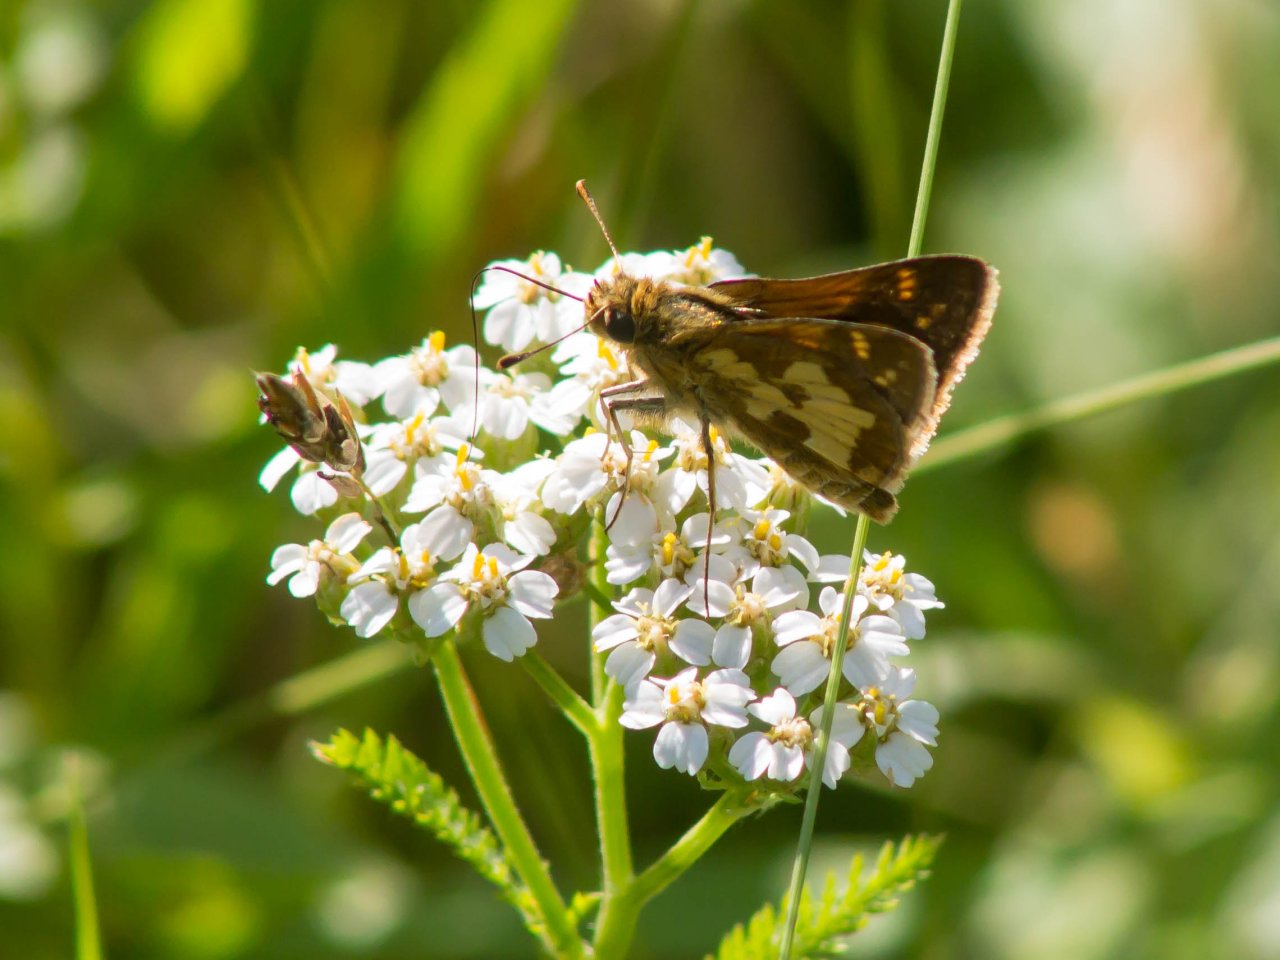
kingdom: Animalia
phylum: Arthropoda
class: Insecta
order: Lepidoptera
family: Hesperiidae
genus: Polites
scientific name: Polites coras
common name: Peck's Skipper
